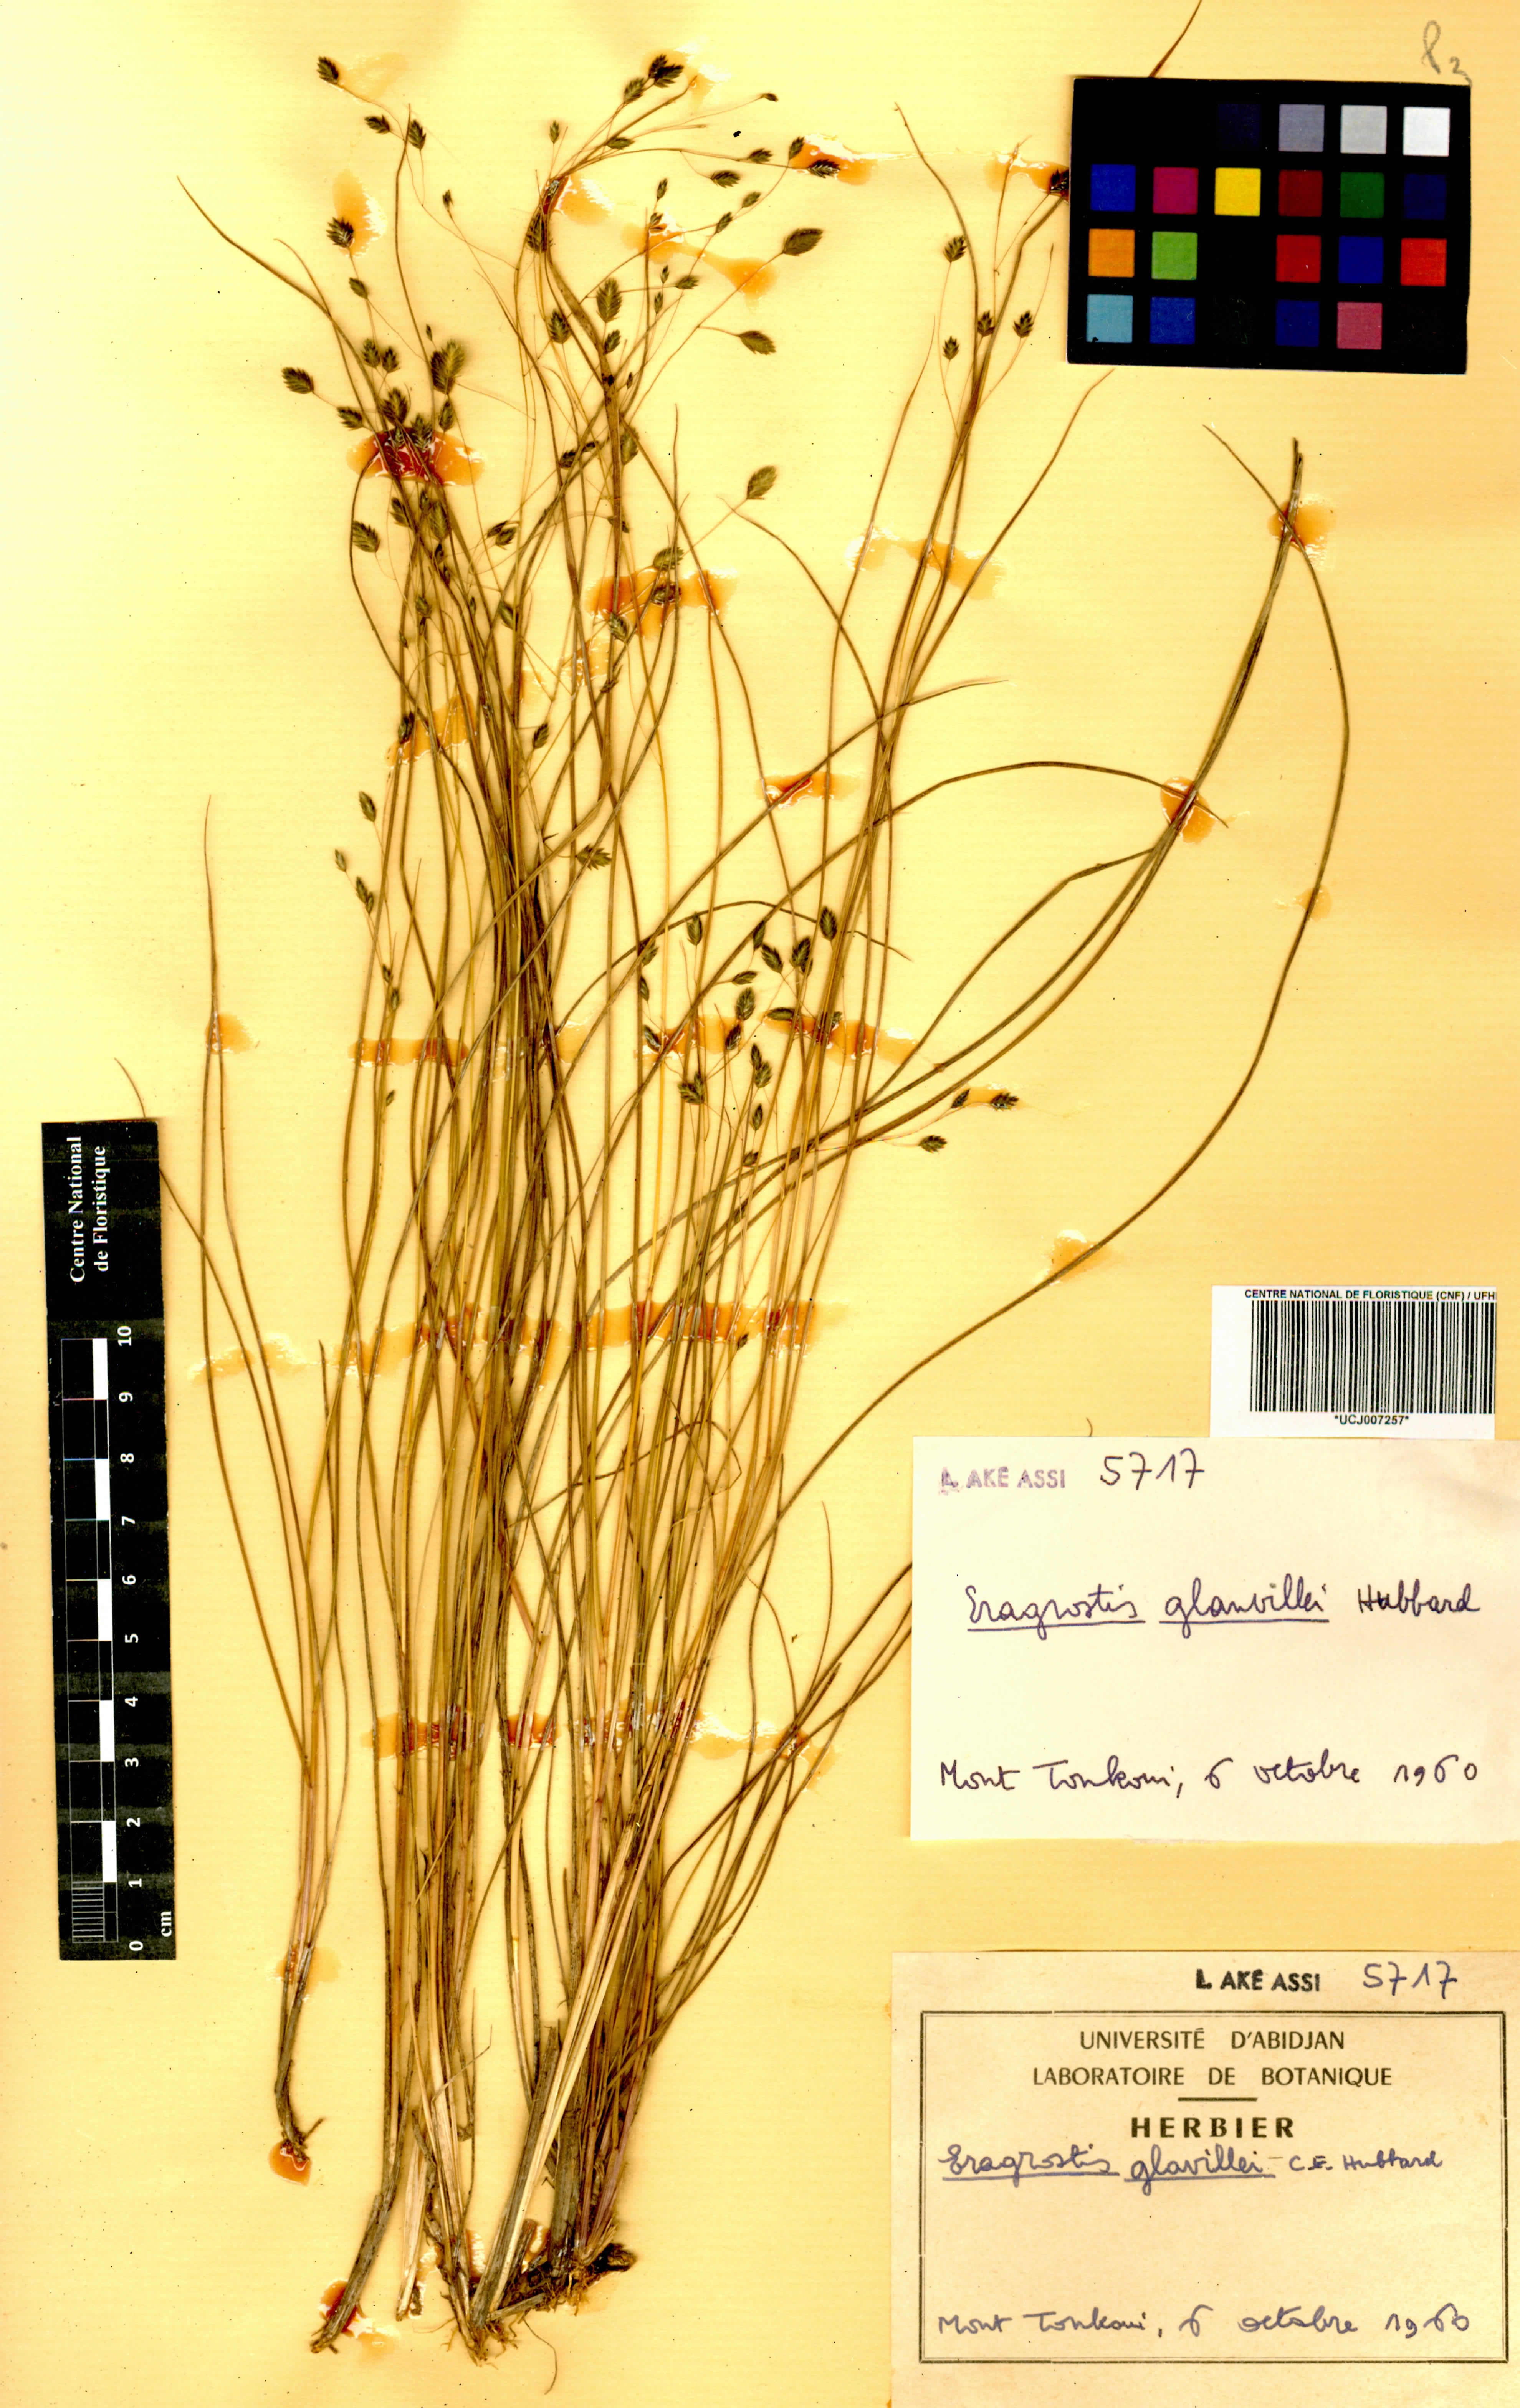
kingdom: Plantae
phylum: Tracheophyta
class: Liliopsida
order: Poales
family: Poaceae
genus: Eragrostis
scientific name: Eragrostis invalida
